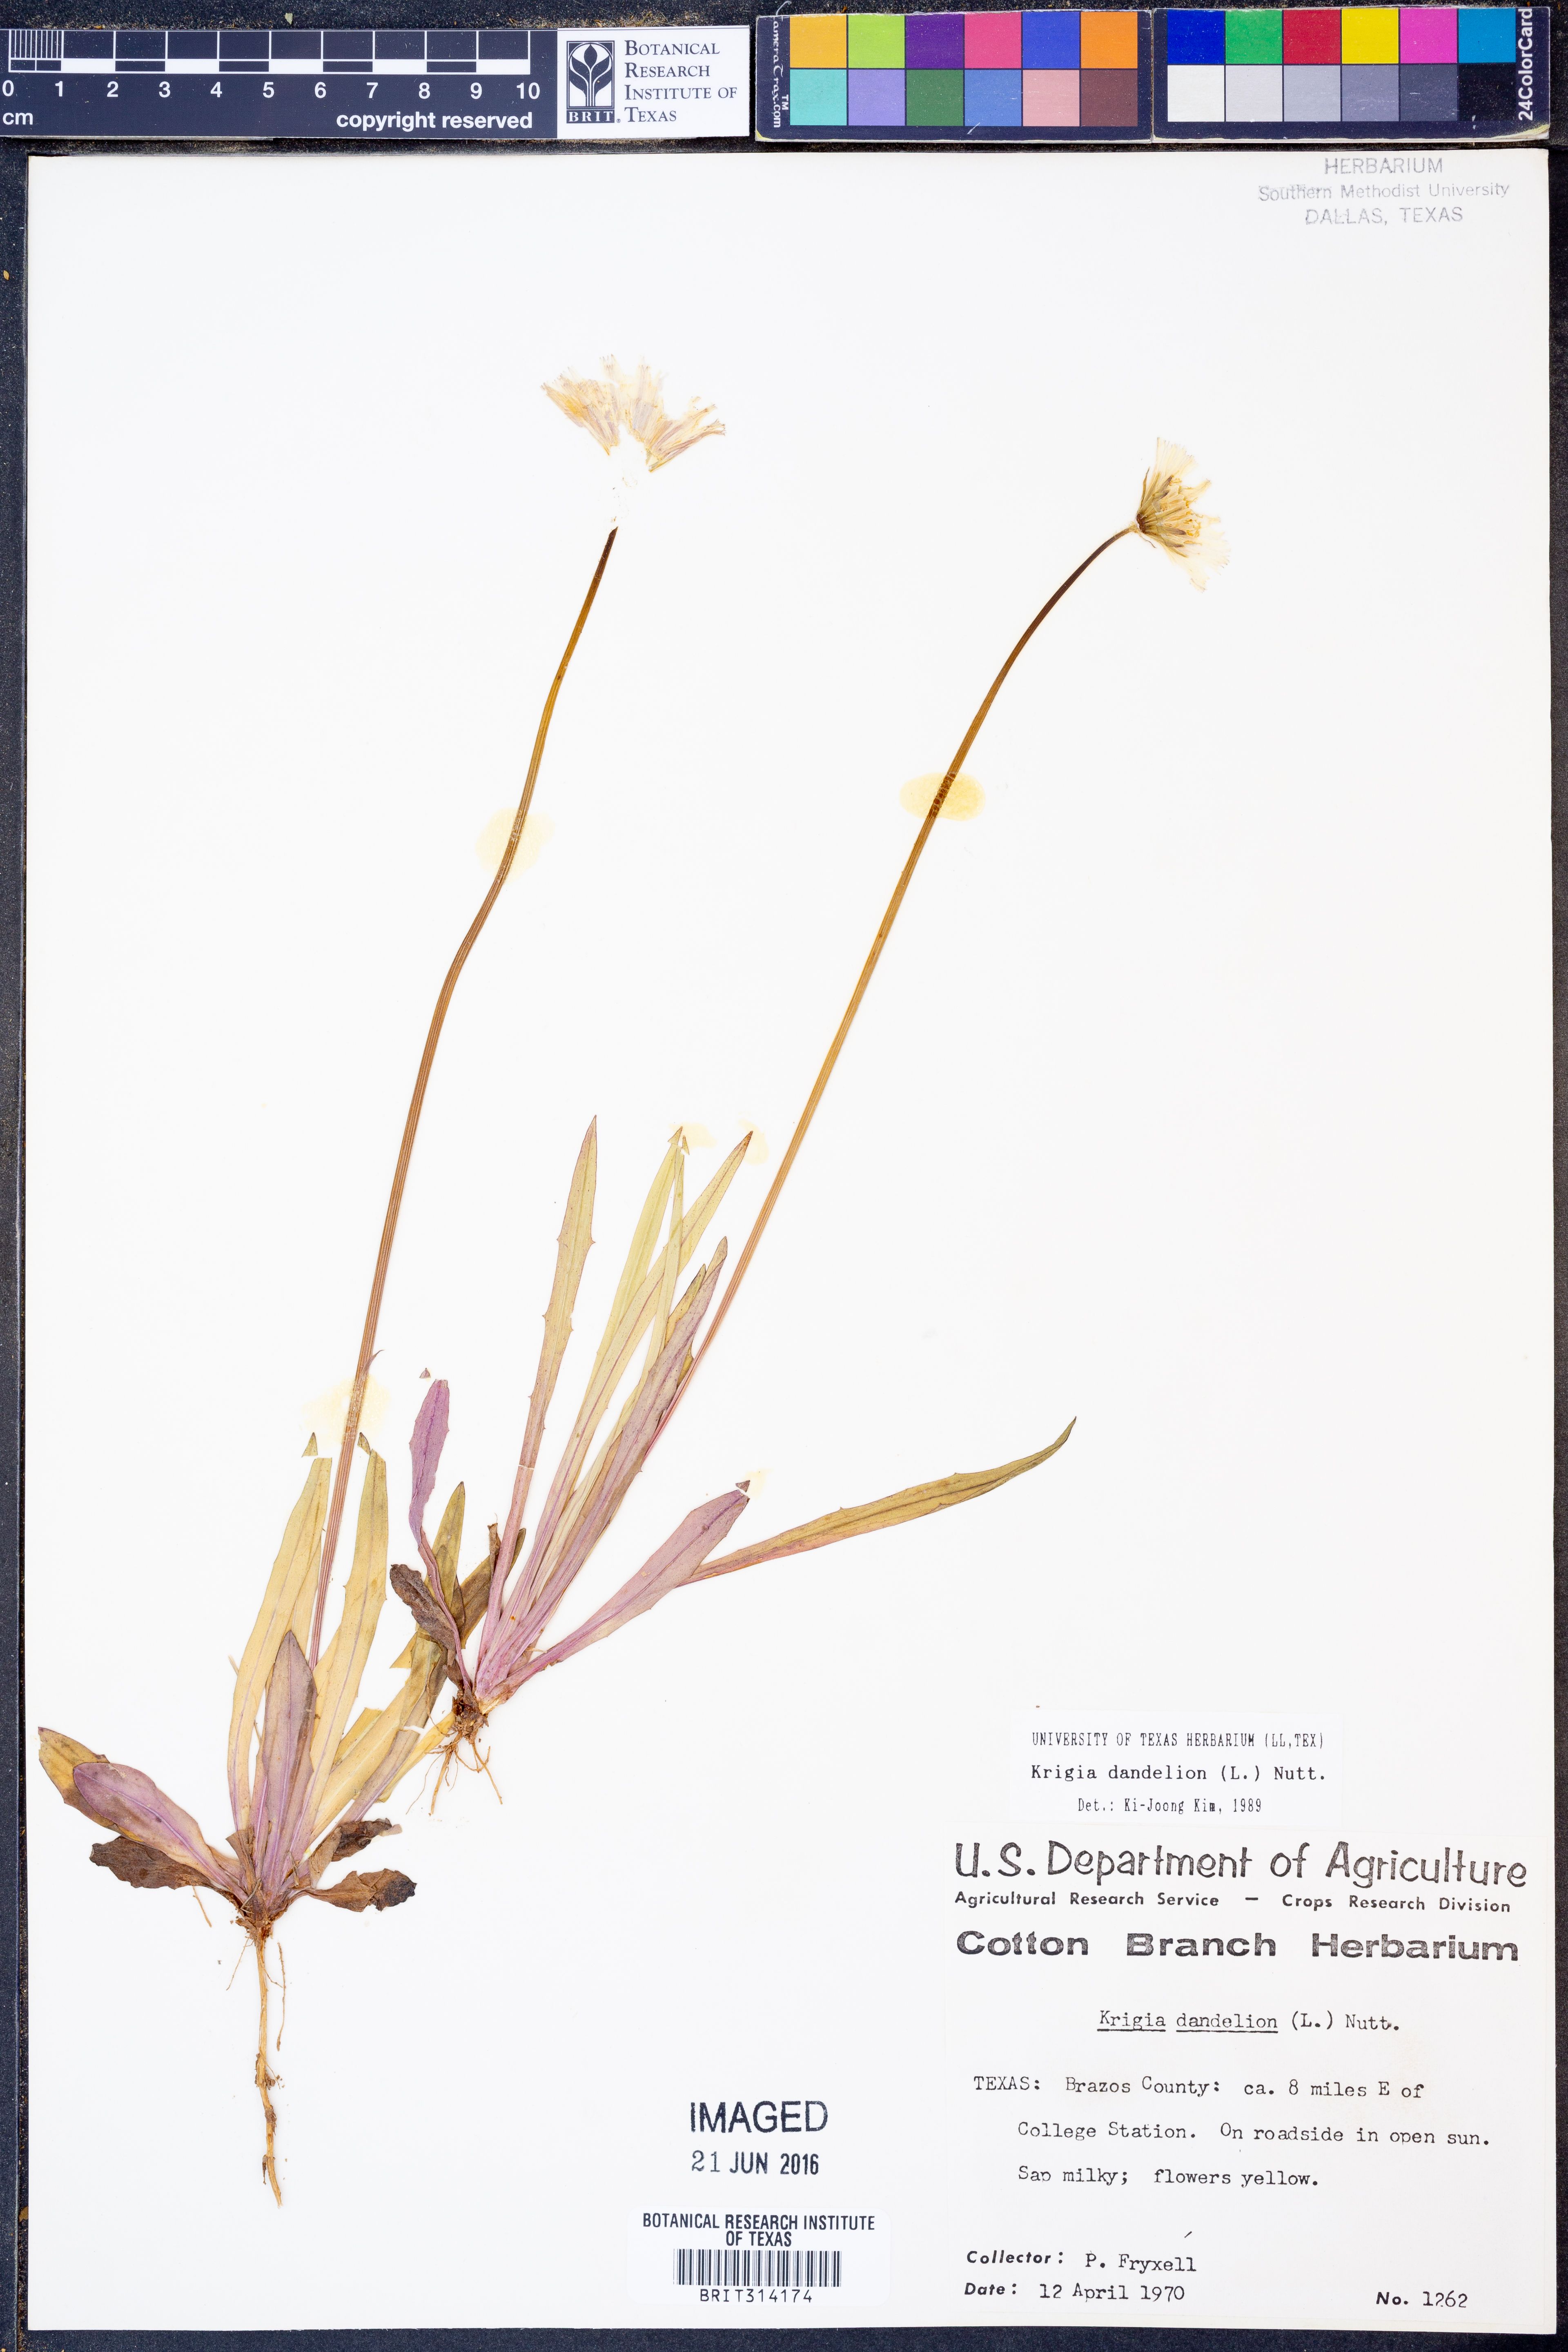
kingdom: Plantae
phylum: Tracheophyta
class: Magnoliopsida
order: Asterales
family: Asteraceae
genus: Krigia
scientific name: Krigia dandelion
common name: Colonial dwarf-dandelion
